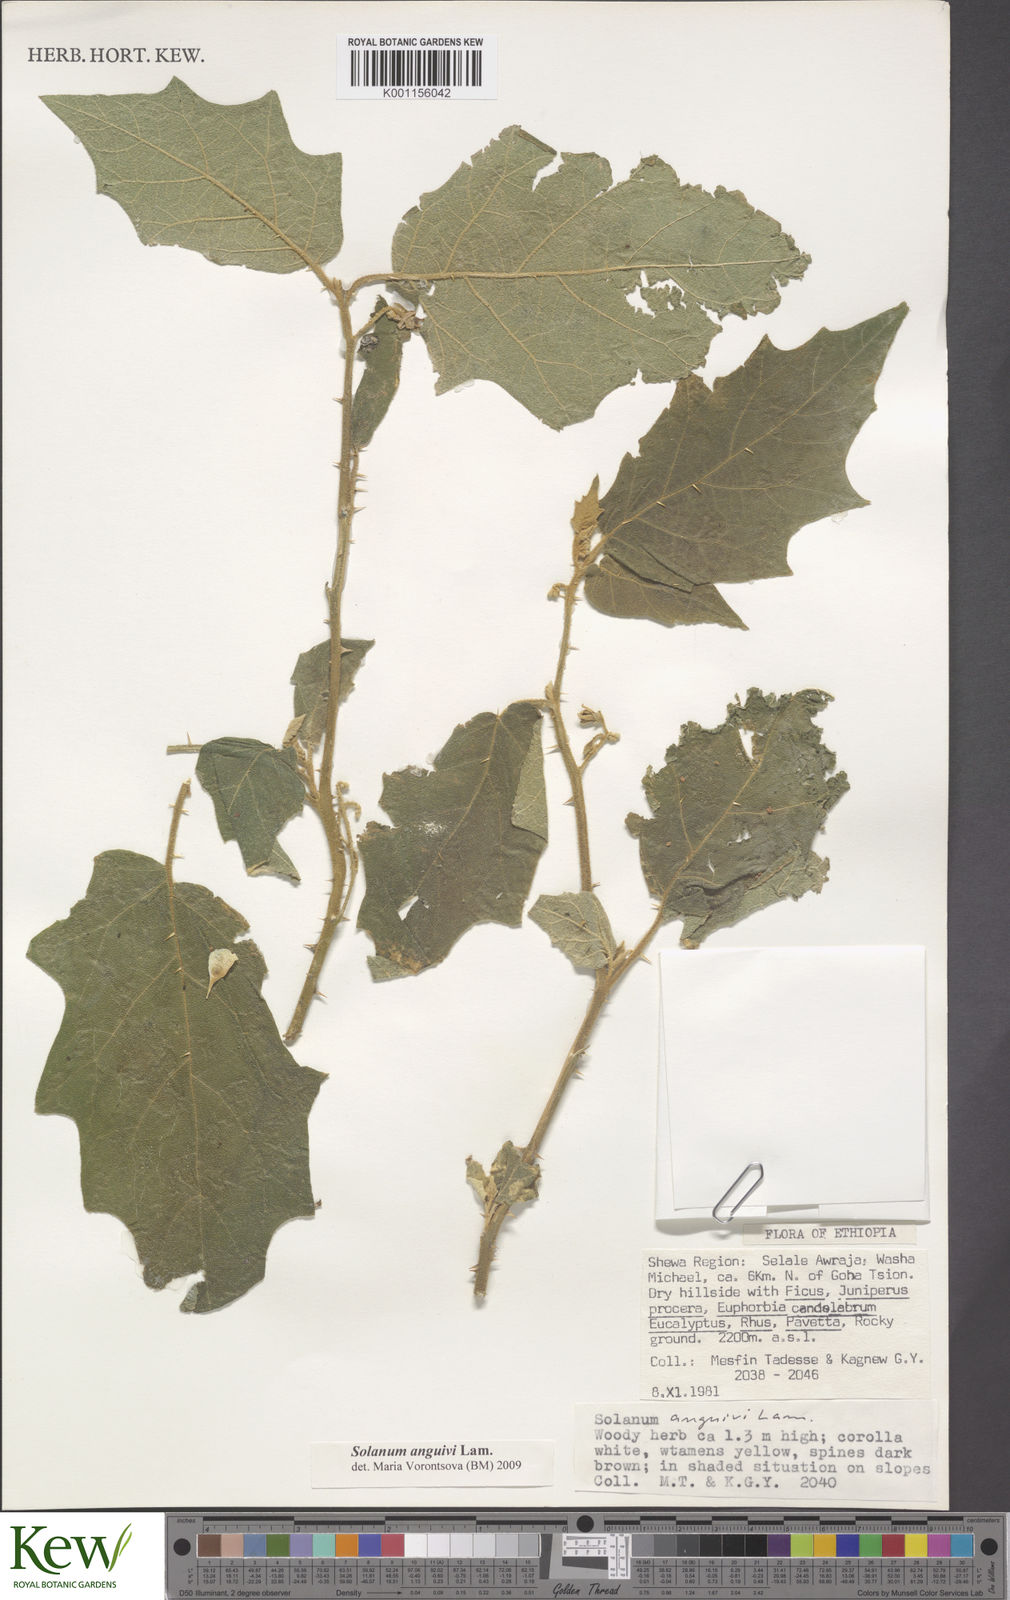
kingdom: Plantae
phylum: Tracheophyta
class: Magnoliopsida
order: Solanales
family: Solanaceae
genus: Solanum
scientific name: Solanum anguivi
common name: Forest bitterberry
